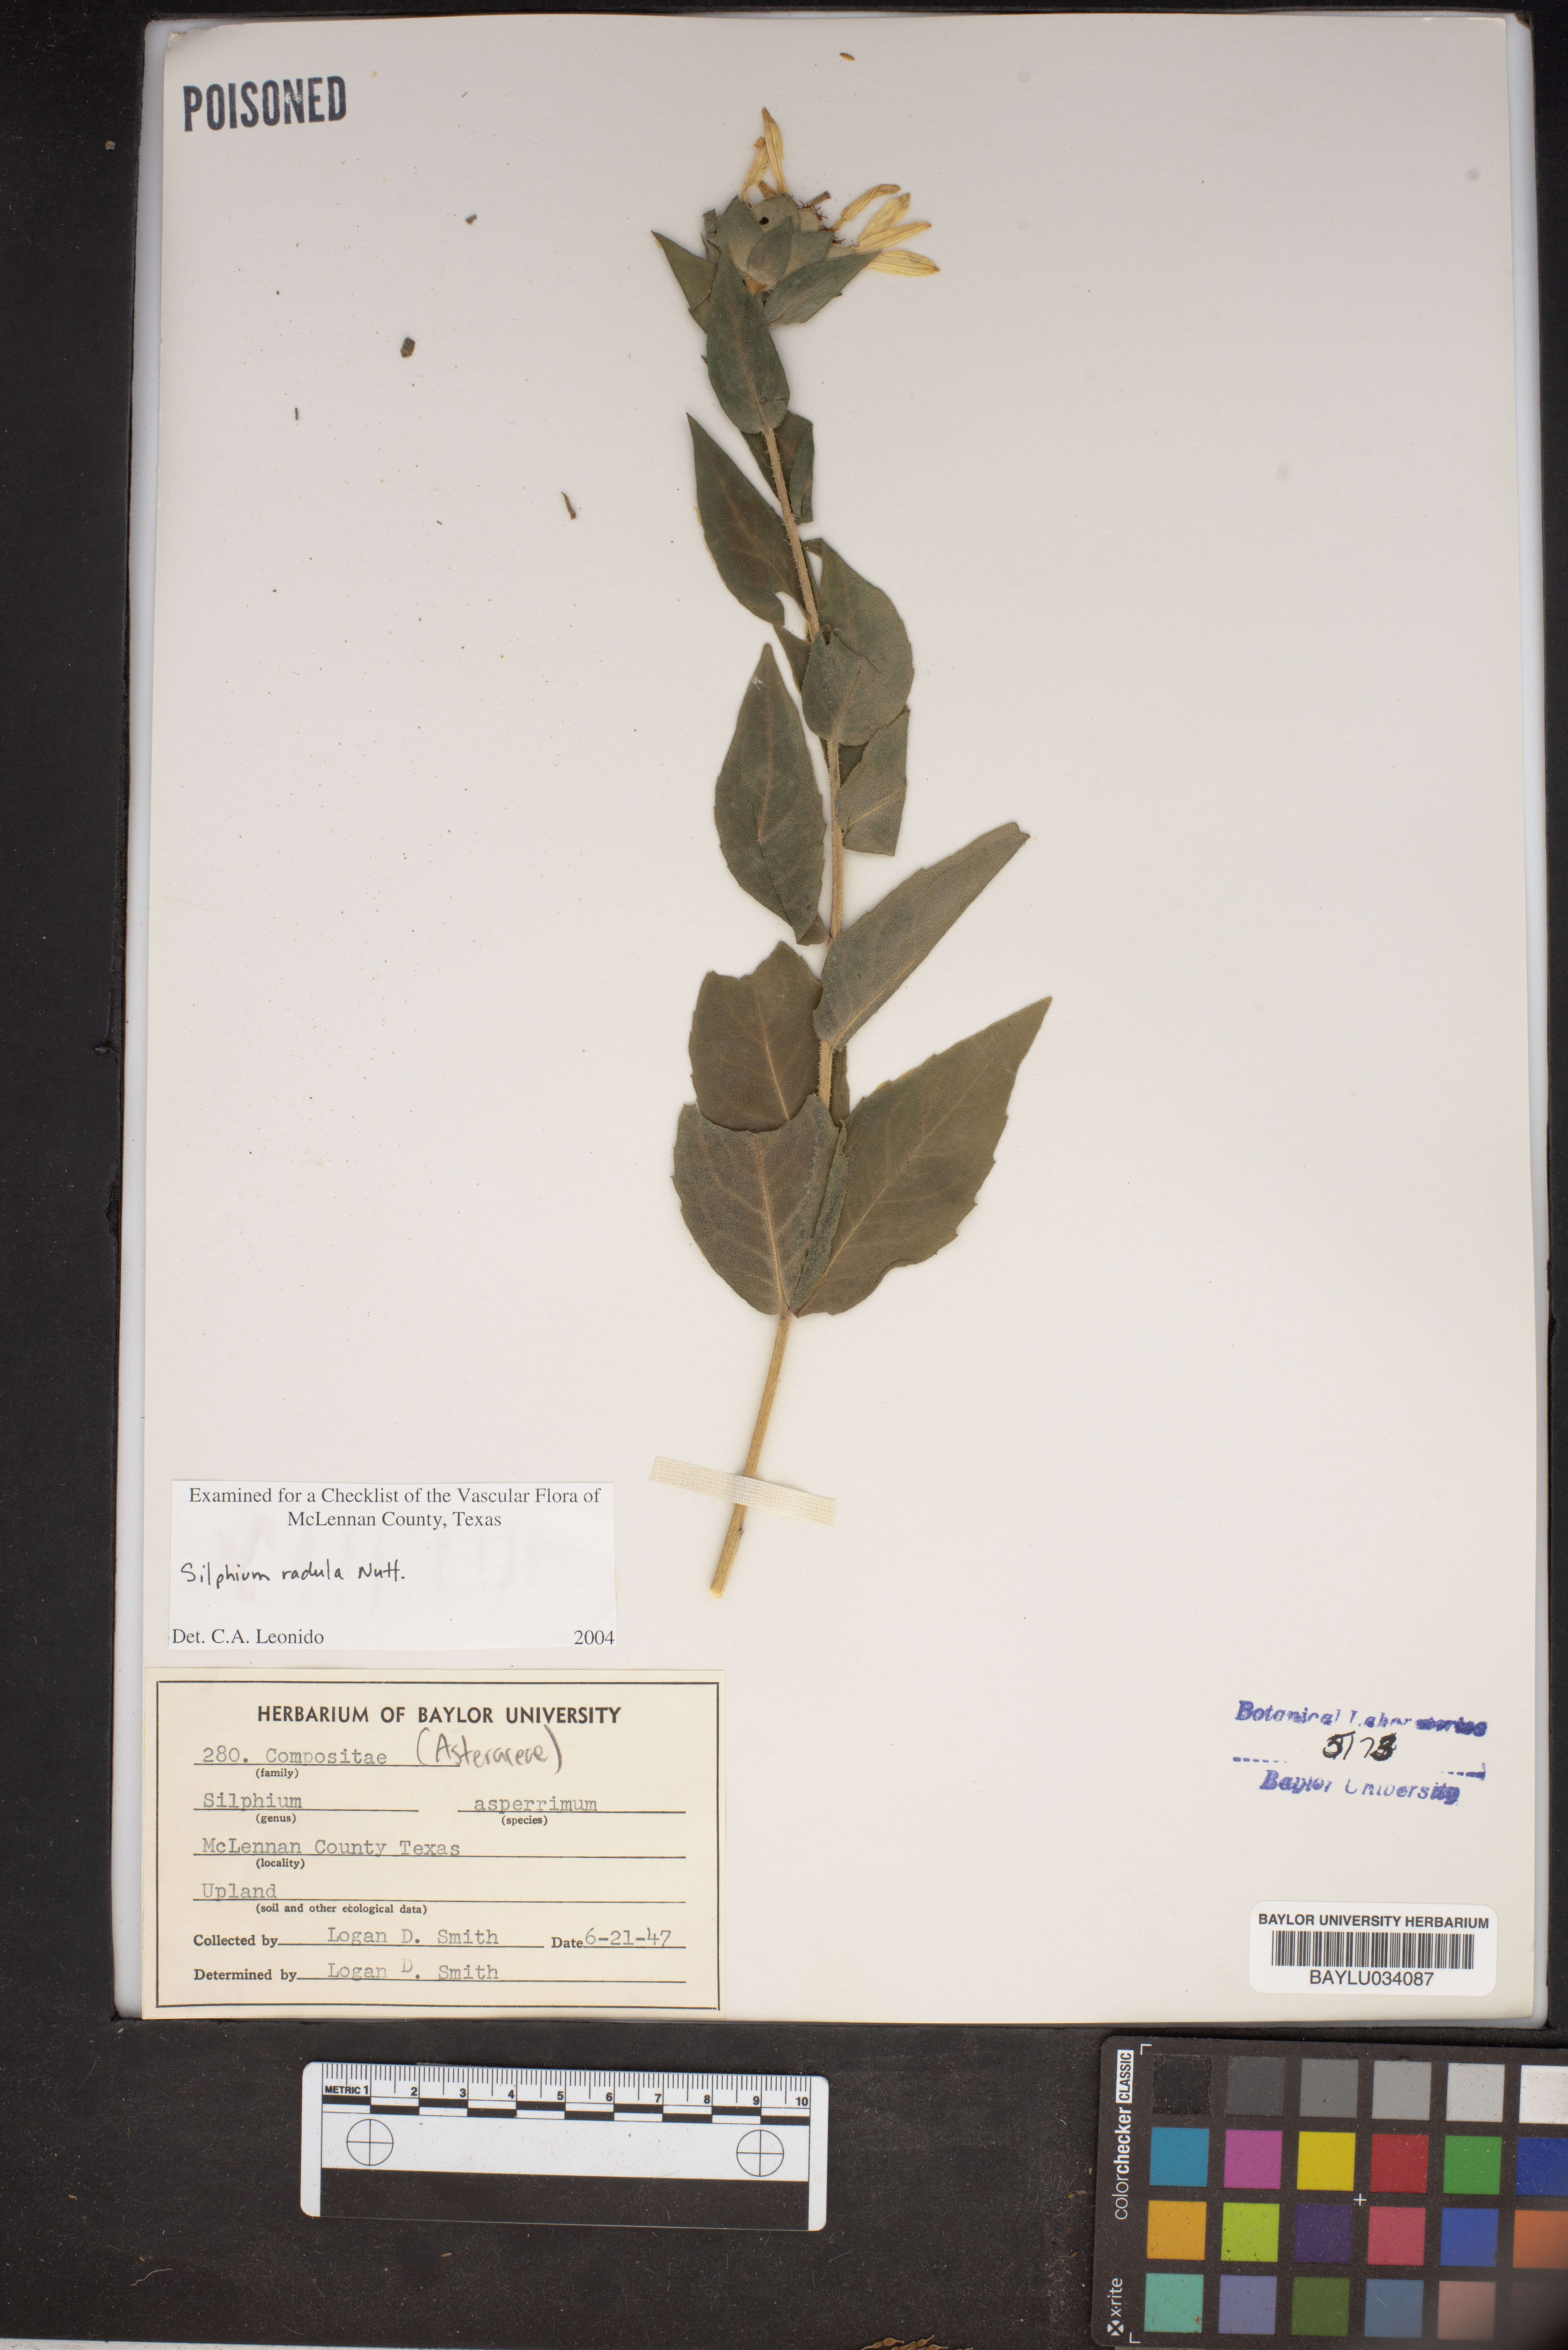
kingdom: Plantae
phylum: Tracheophyta
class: Magnoliopsida
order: Asterales
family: Asteraceae
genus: Silphium
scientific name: Silphium radula
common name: Roughleaf rosinweed
